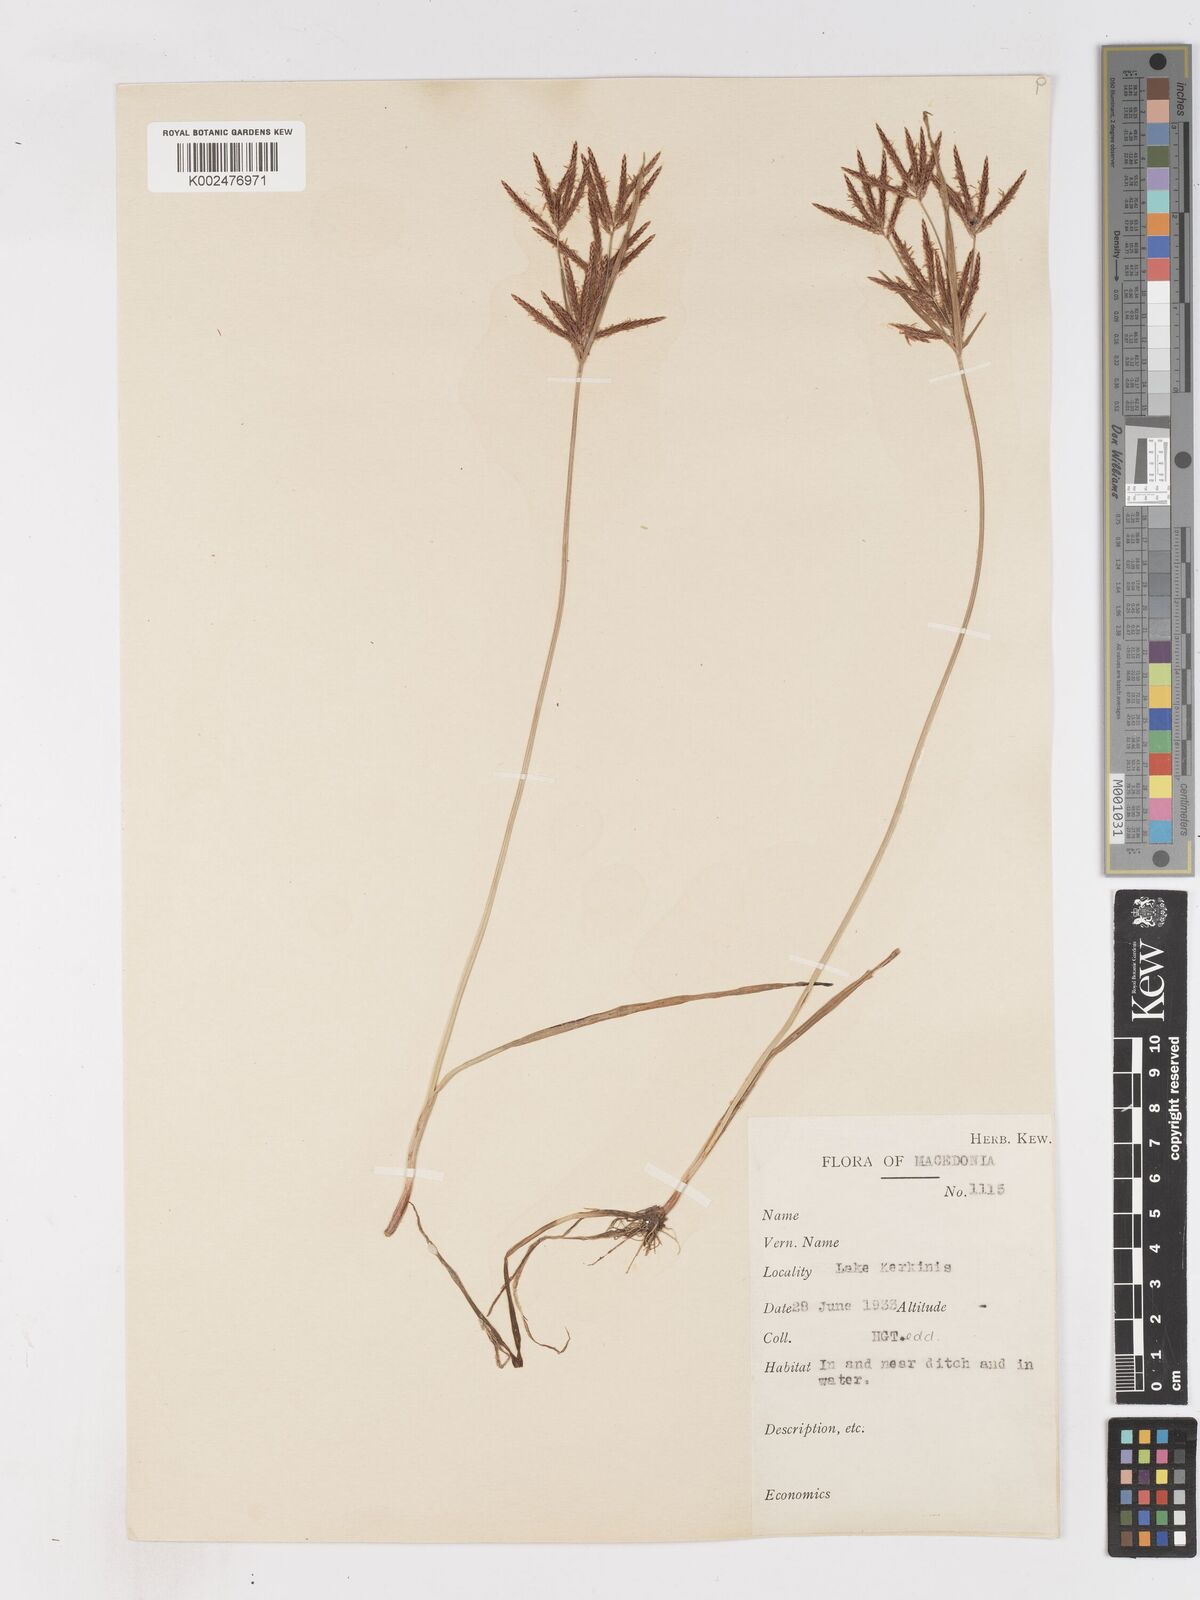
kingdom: Plantae
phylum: Tracheophyta
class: Liliopsida
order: Poales
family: Cyperaceae
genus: Cyperus
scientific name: Cyperus rotundus
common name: Nutgrass
